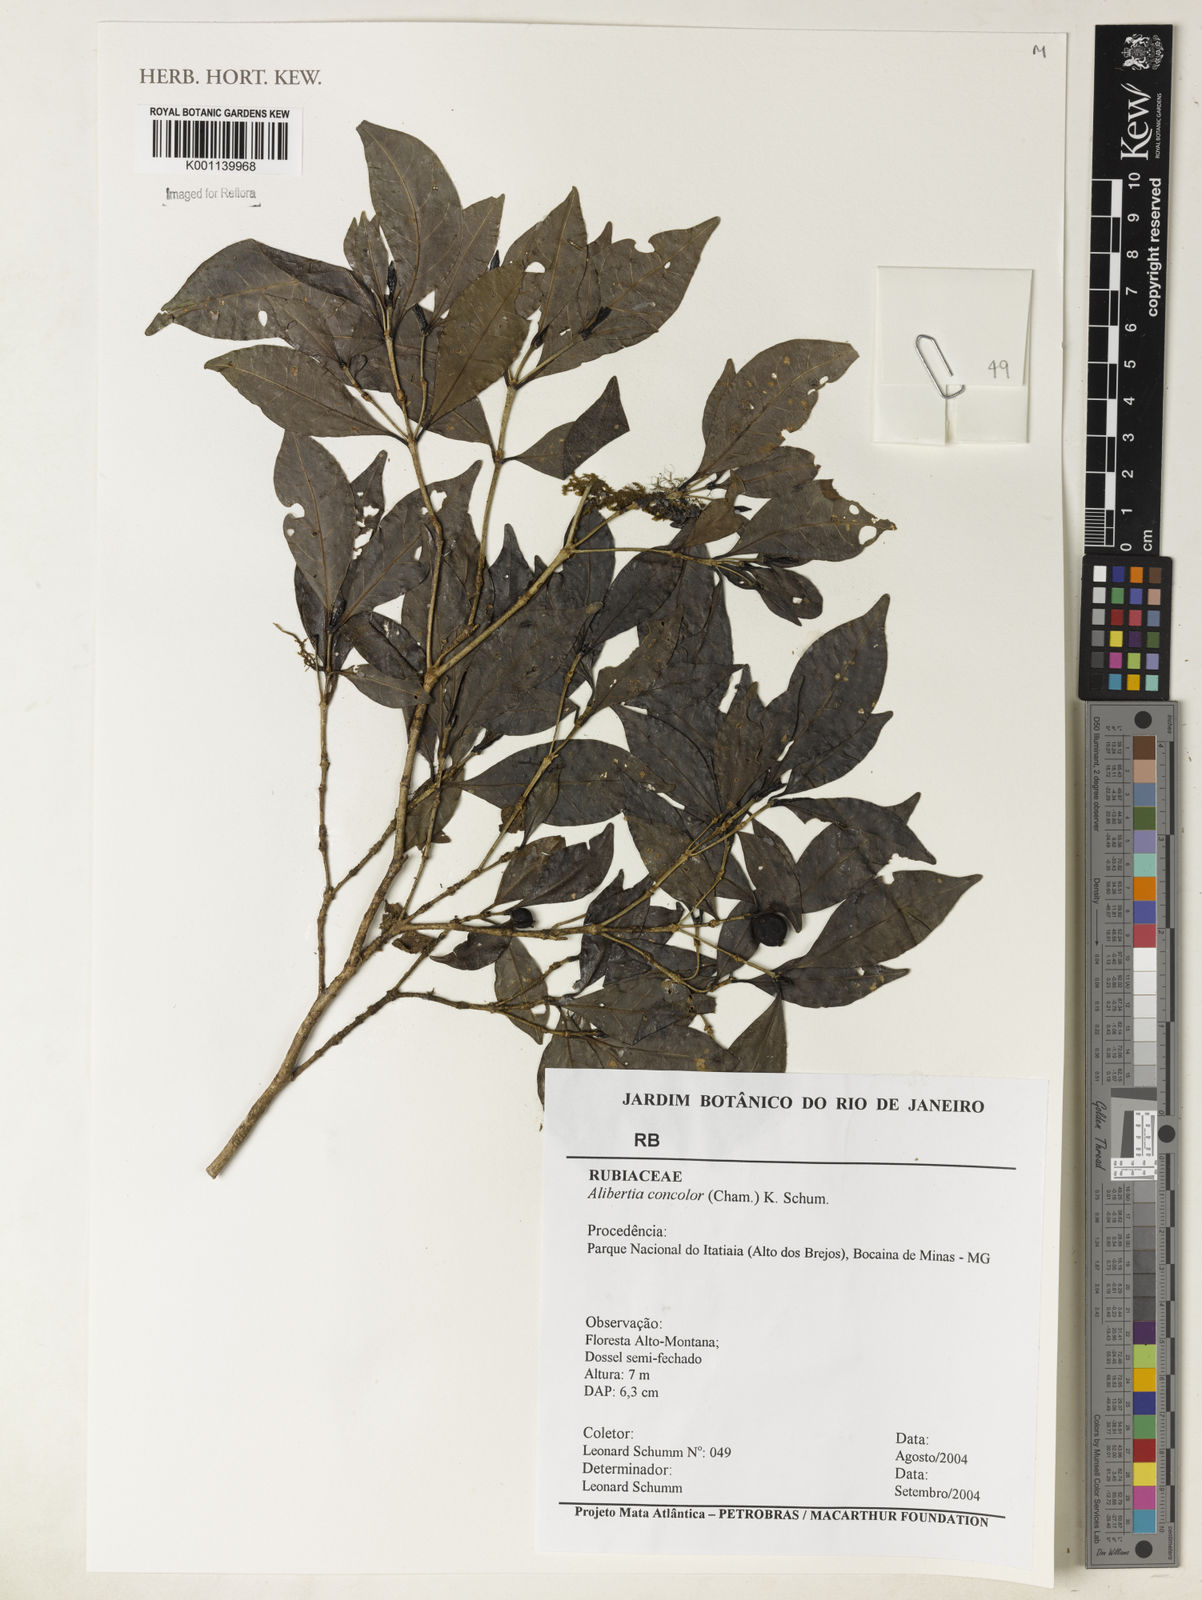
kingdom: Plantae
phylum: Tracheophyta
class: Magnoliopsida
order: Gentianales
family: Rubiaceae
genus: Cordiera
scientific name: Cordiera concolor
